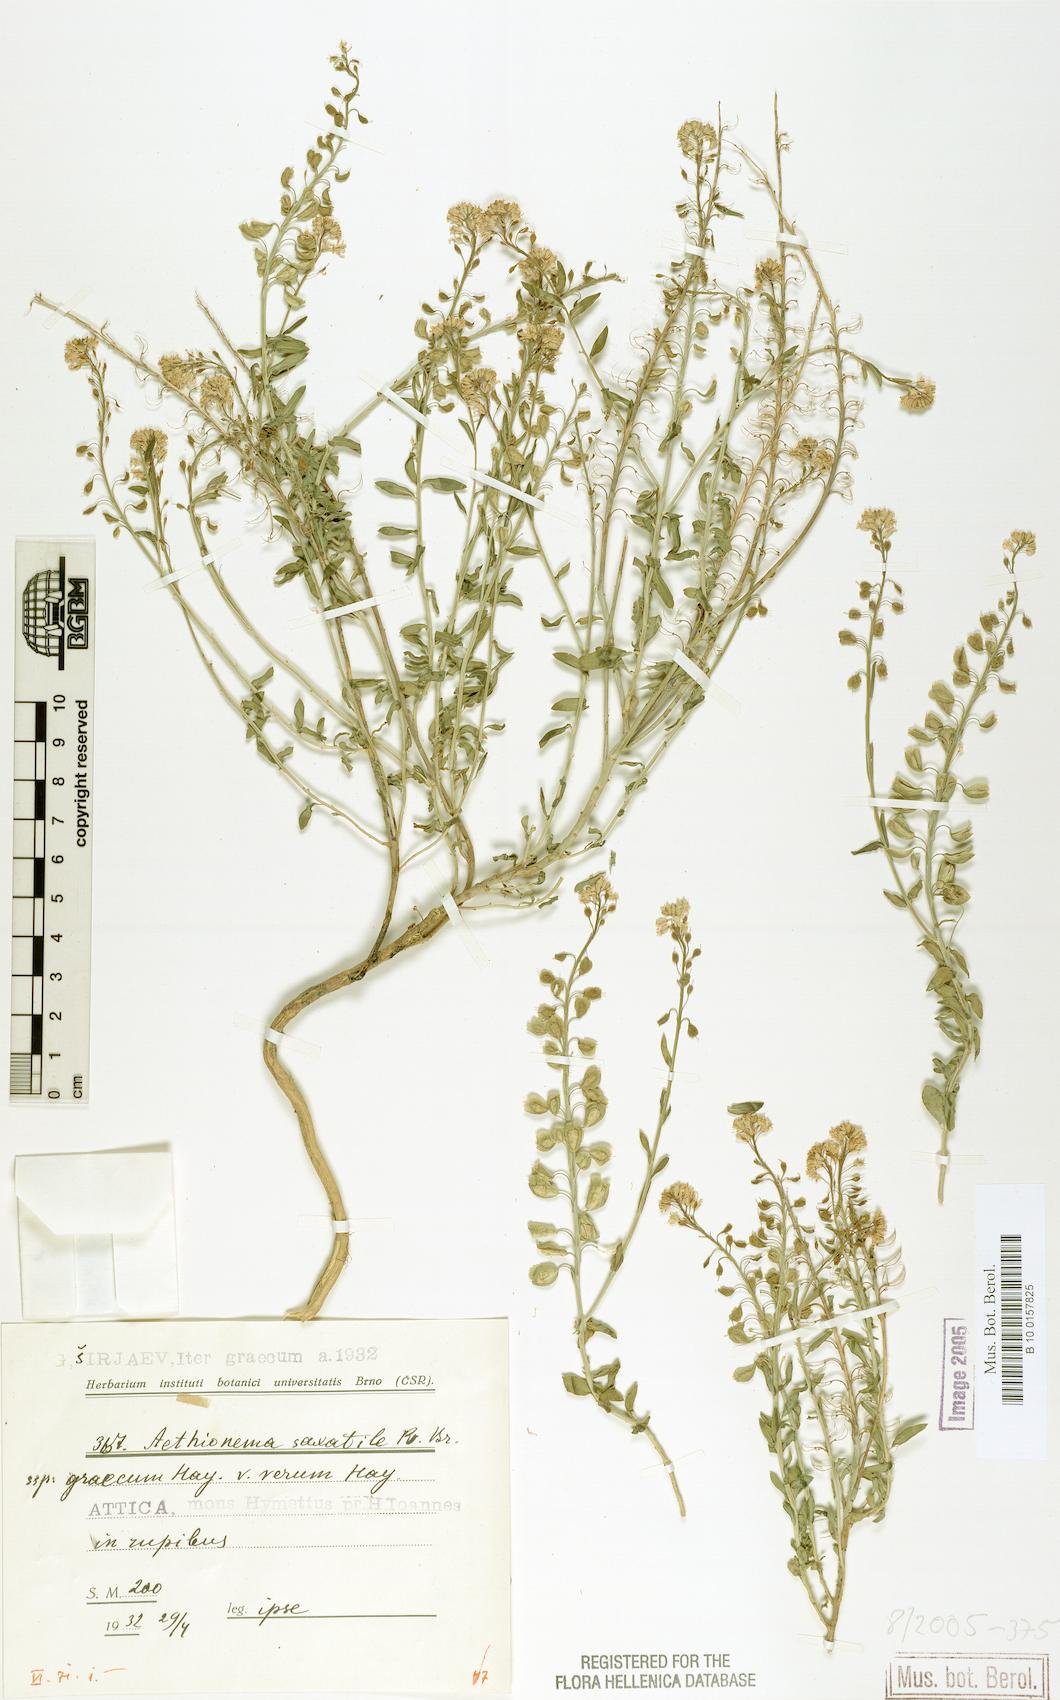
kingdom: Plantae
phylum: Tracheophyta
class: Magnoliopsida
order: Brassicales
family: Brassicaceae
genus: Aethionema
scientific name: Aethionema saxatile
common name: Burnt candytuft
